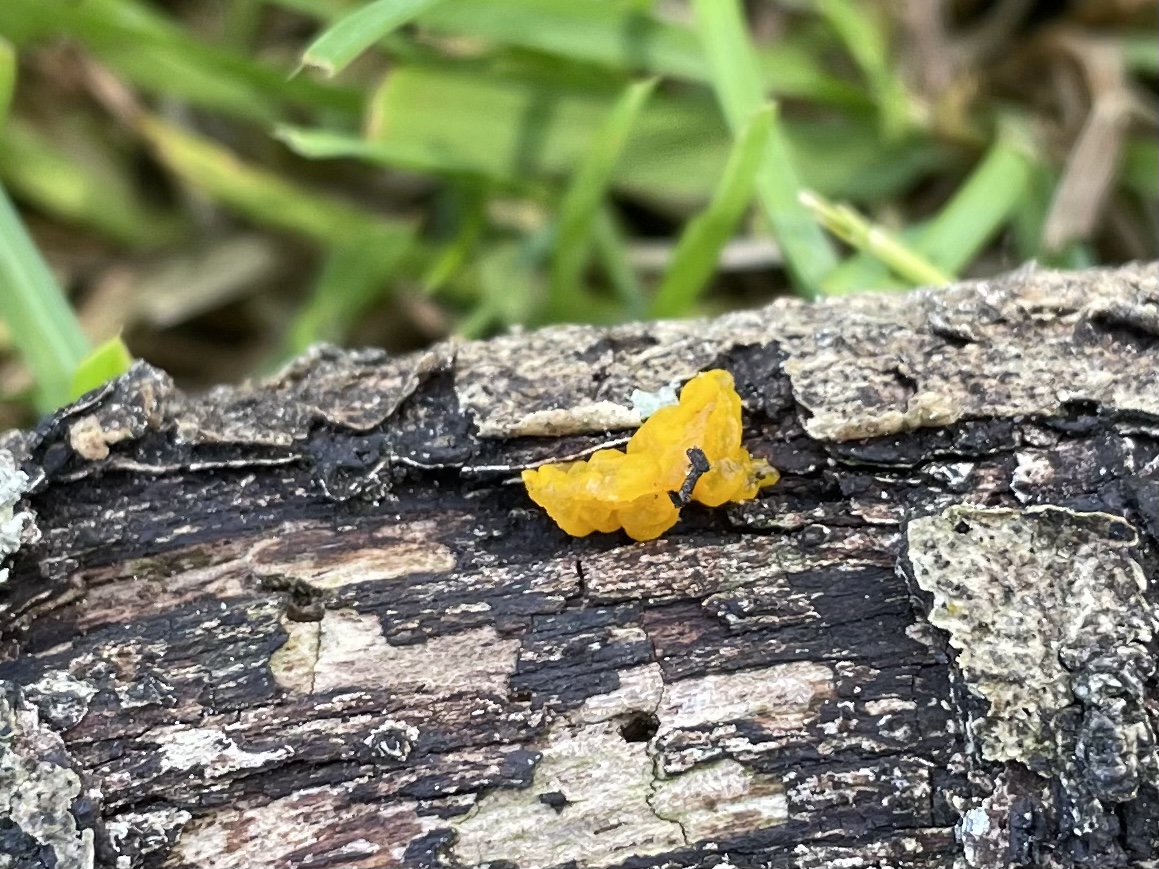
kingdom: Fungi
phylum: Basidiomycota
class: Tremellomycetes
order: Tremellales
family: Tremellaceae
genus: Tremella
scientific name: Tremella mesenterica
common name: gul bævresvamp
